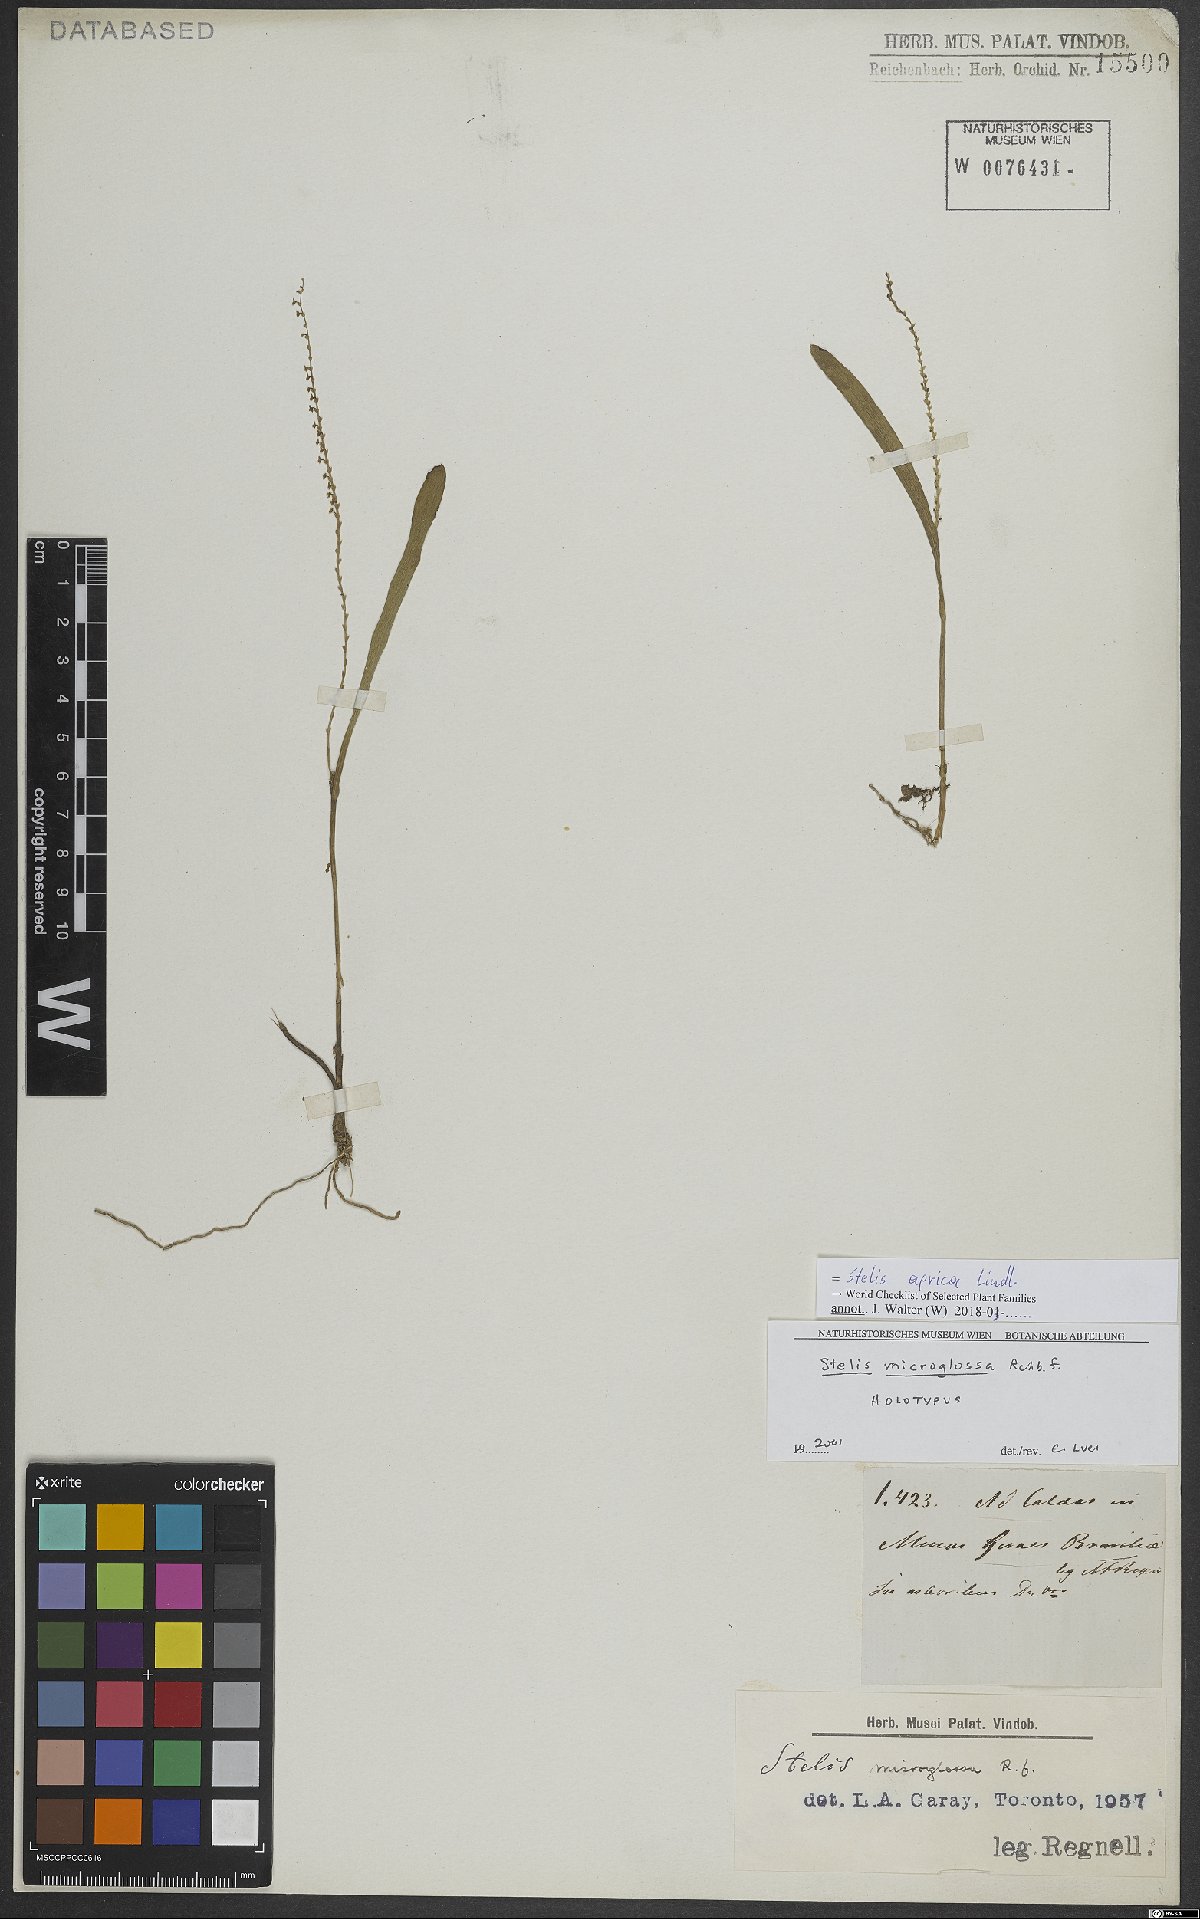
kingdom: Plantae
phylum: Tracheophyta
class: Liliopsida
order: Asparagales
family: Orchidaceae
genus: Stelis
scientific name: Stelis aprica
